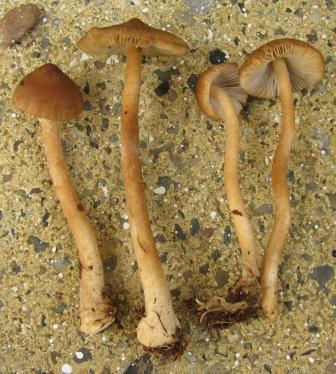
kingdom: Fungi
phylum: Basidiomycota
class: Agaricomycetes
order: Agaricales
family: Inocybaceae
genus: Inocybe
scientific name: Inocybe napipes
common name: roeknoldet trævlhat
